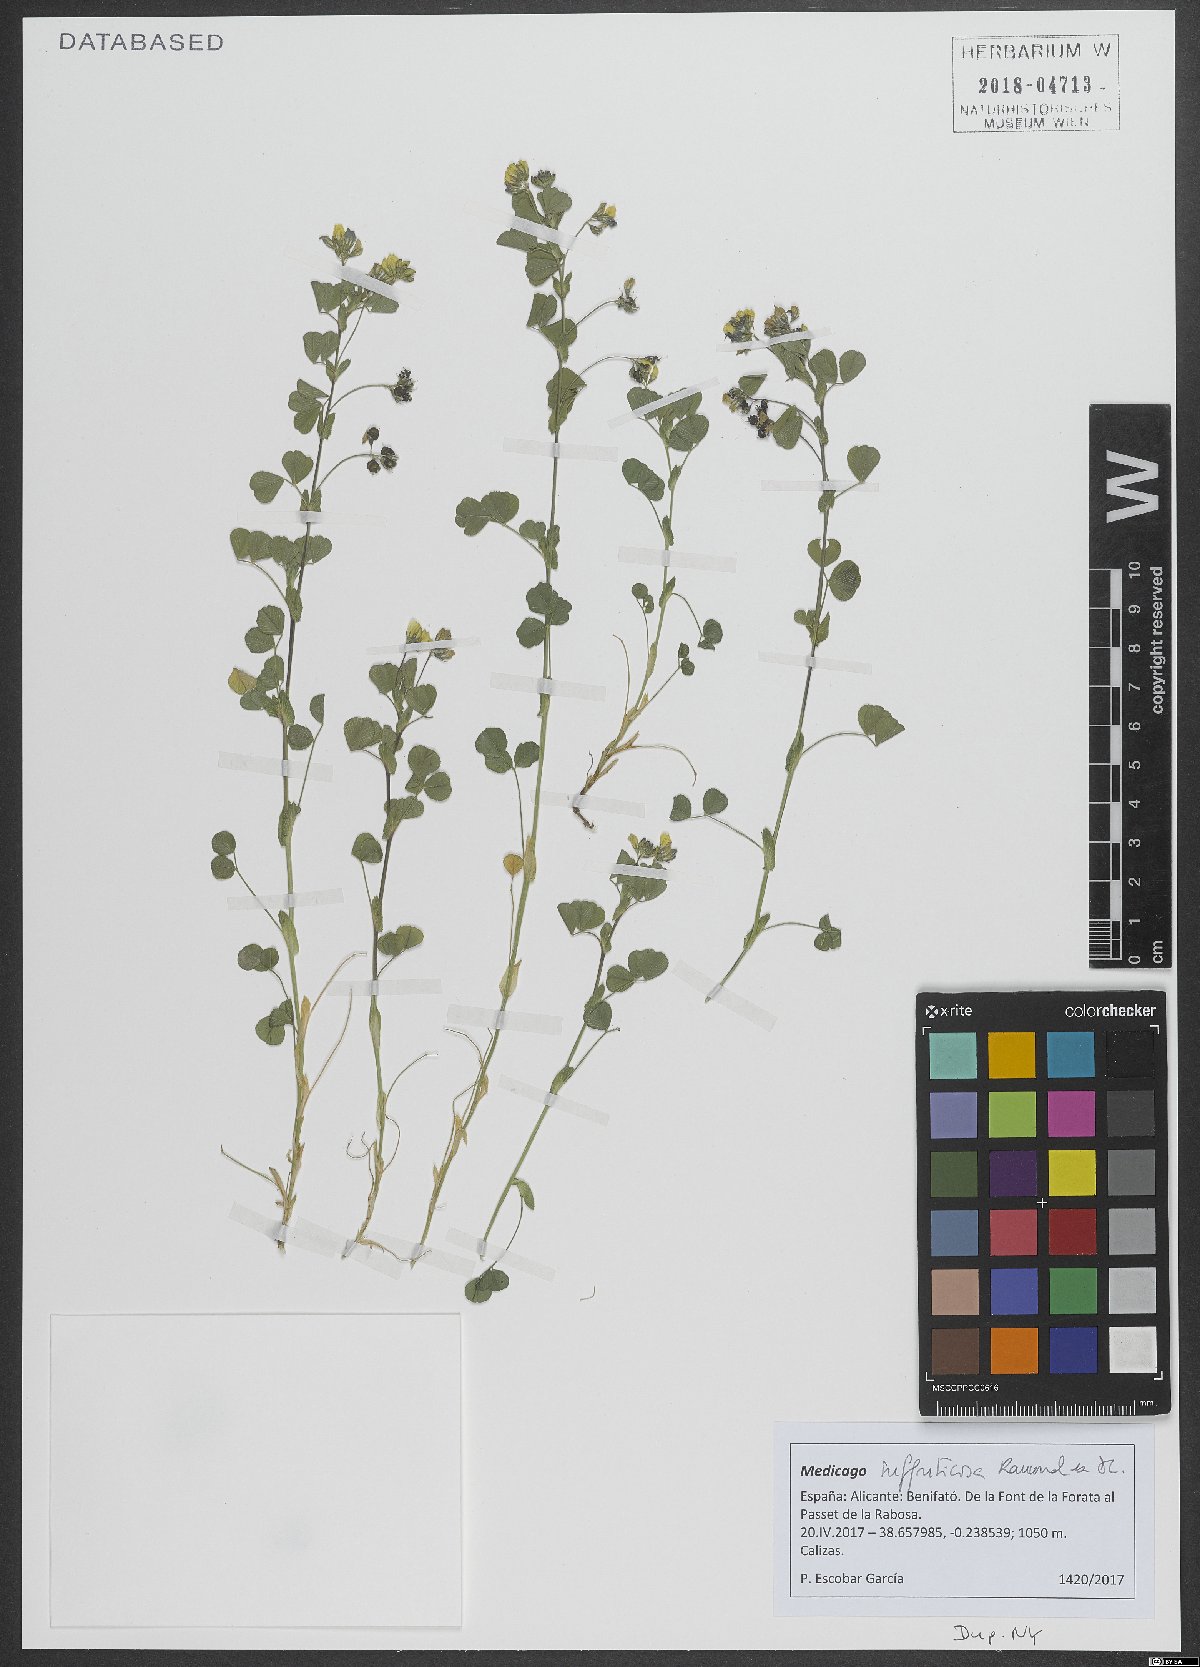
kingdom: Plantae
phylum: Tracheophyta
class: Magnoliopsida
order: Fabales
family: Fabaceae
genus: Medicago
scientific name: Medicago suffruticosa
